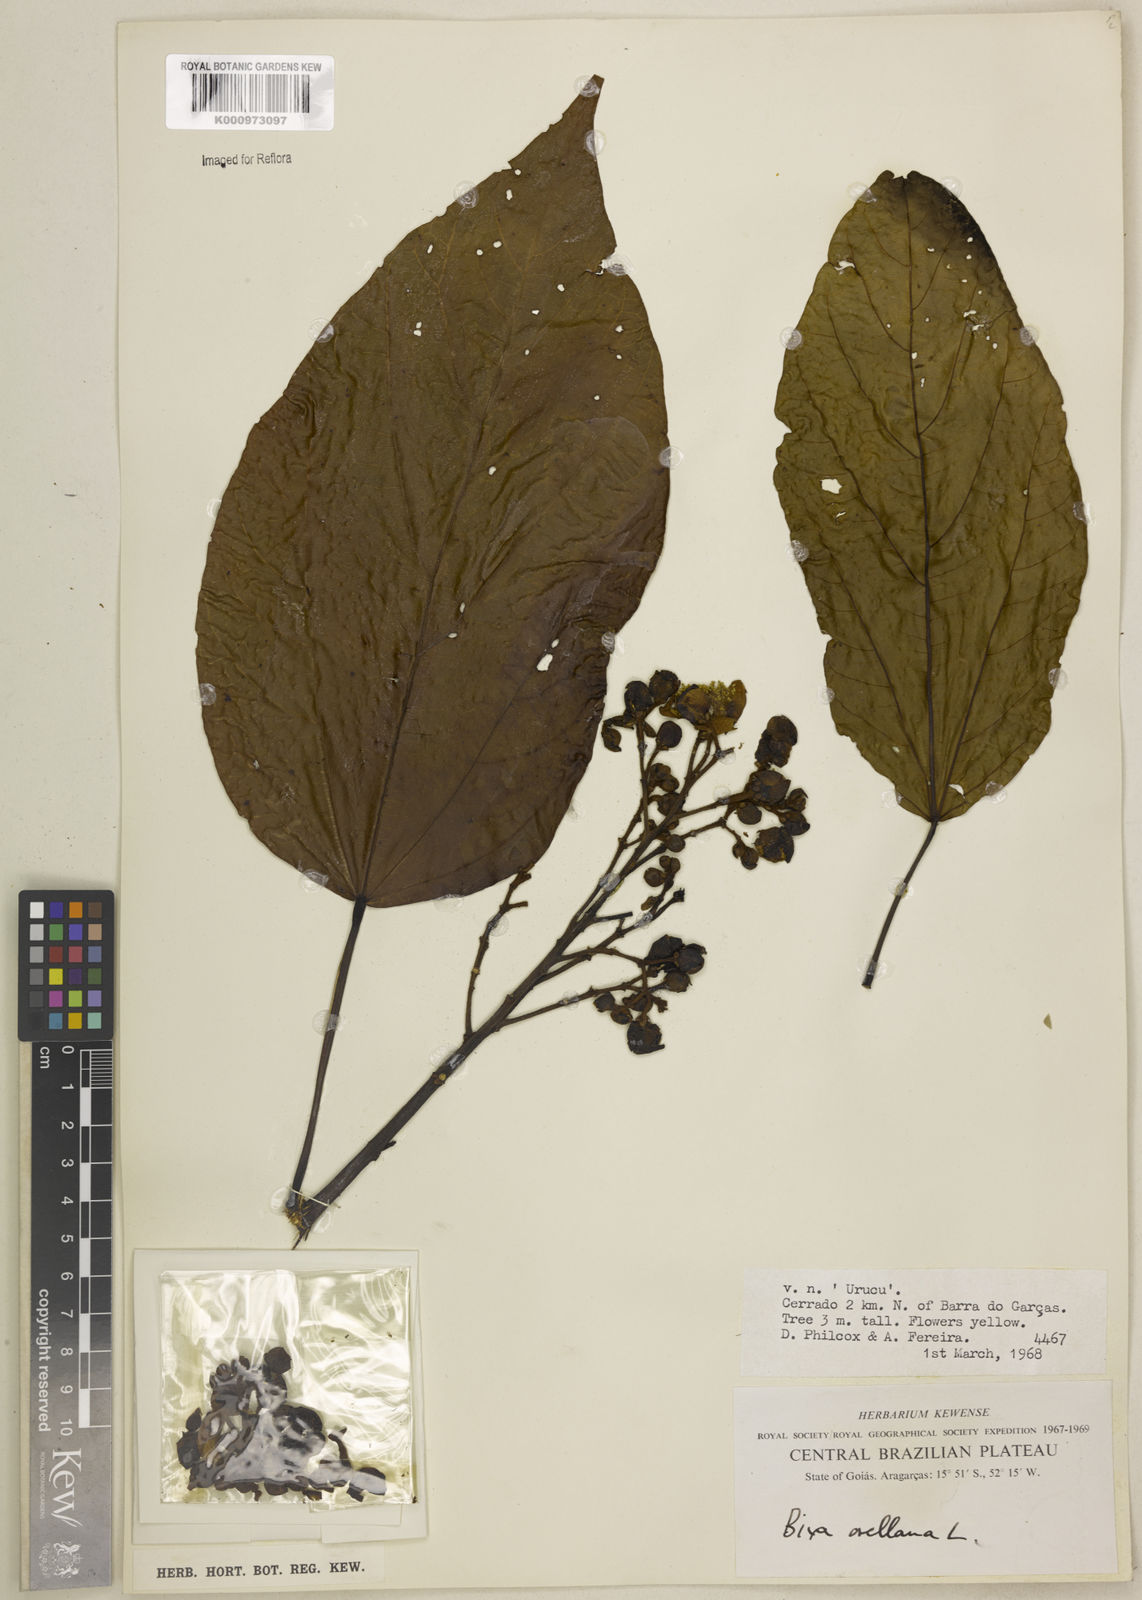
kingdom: Plantae
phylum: Tracheophyta
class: Magnoliopsida
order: Malvales
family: Bixaceae
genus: Bixa
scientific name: Bixa excelsa
